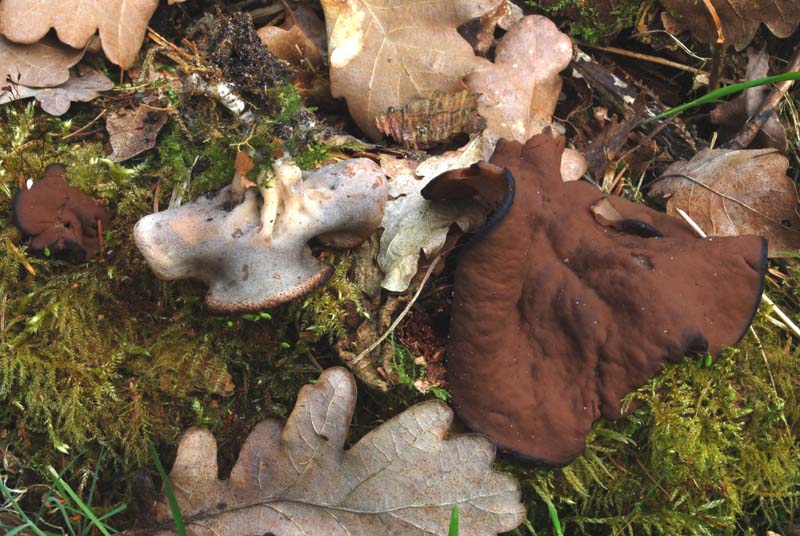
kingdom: Fungi
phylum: Ascomycota
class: Pezizomycetes
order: Pezizales
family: Discinaceae
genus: Discina
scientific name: Discina ancilis
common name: udbredt stenmorkel
